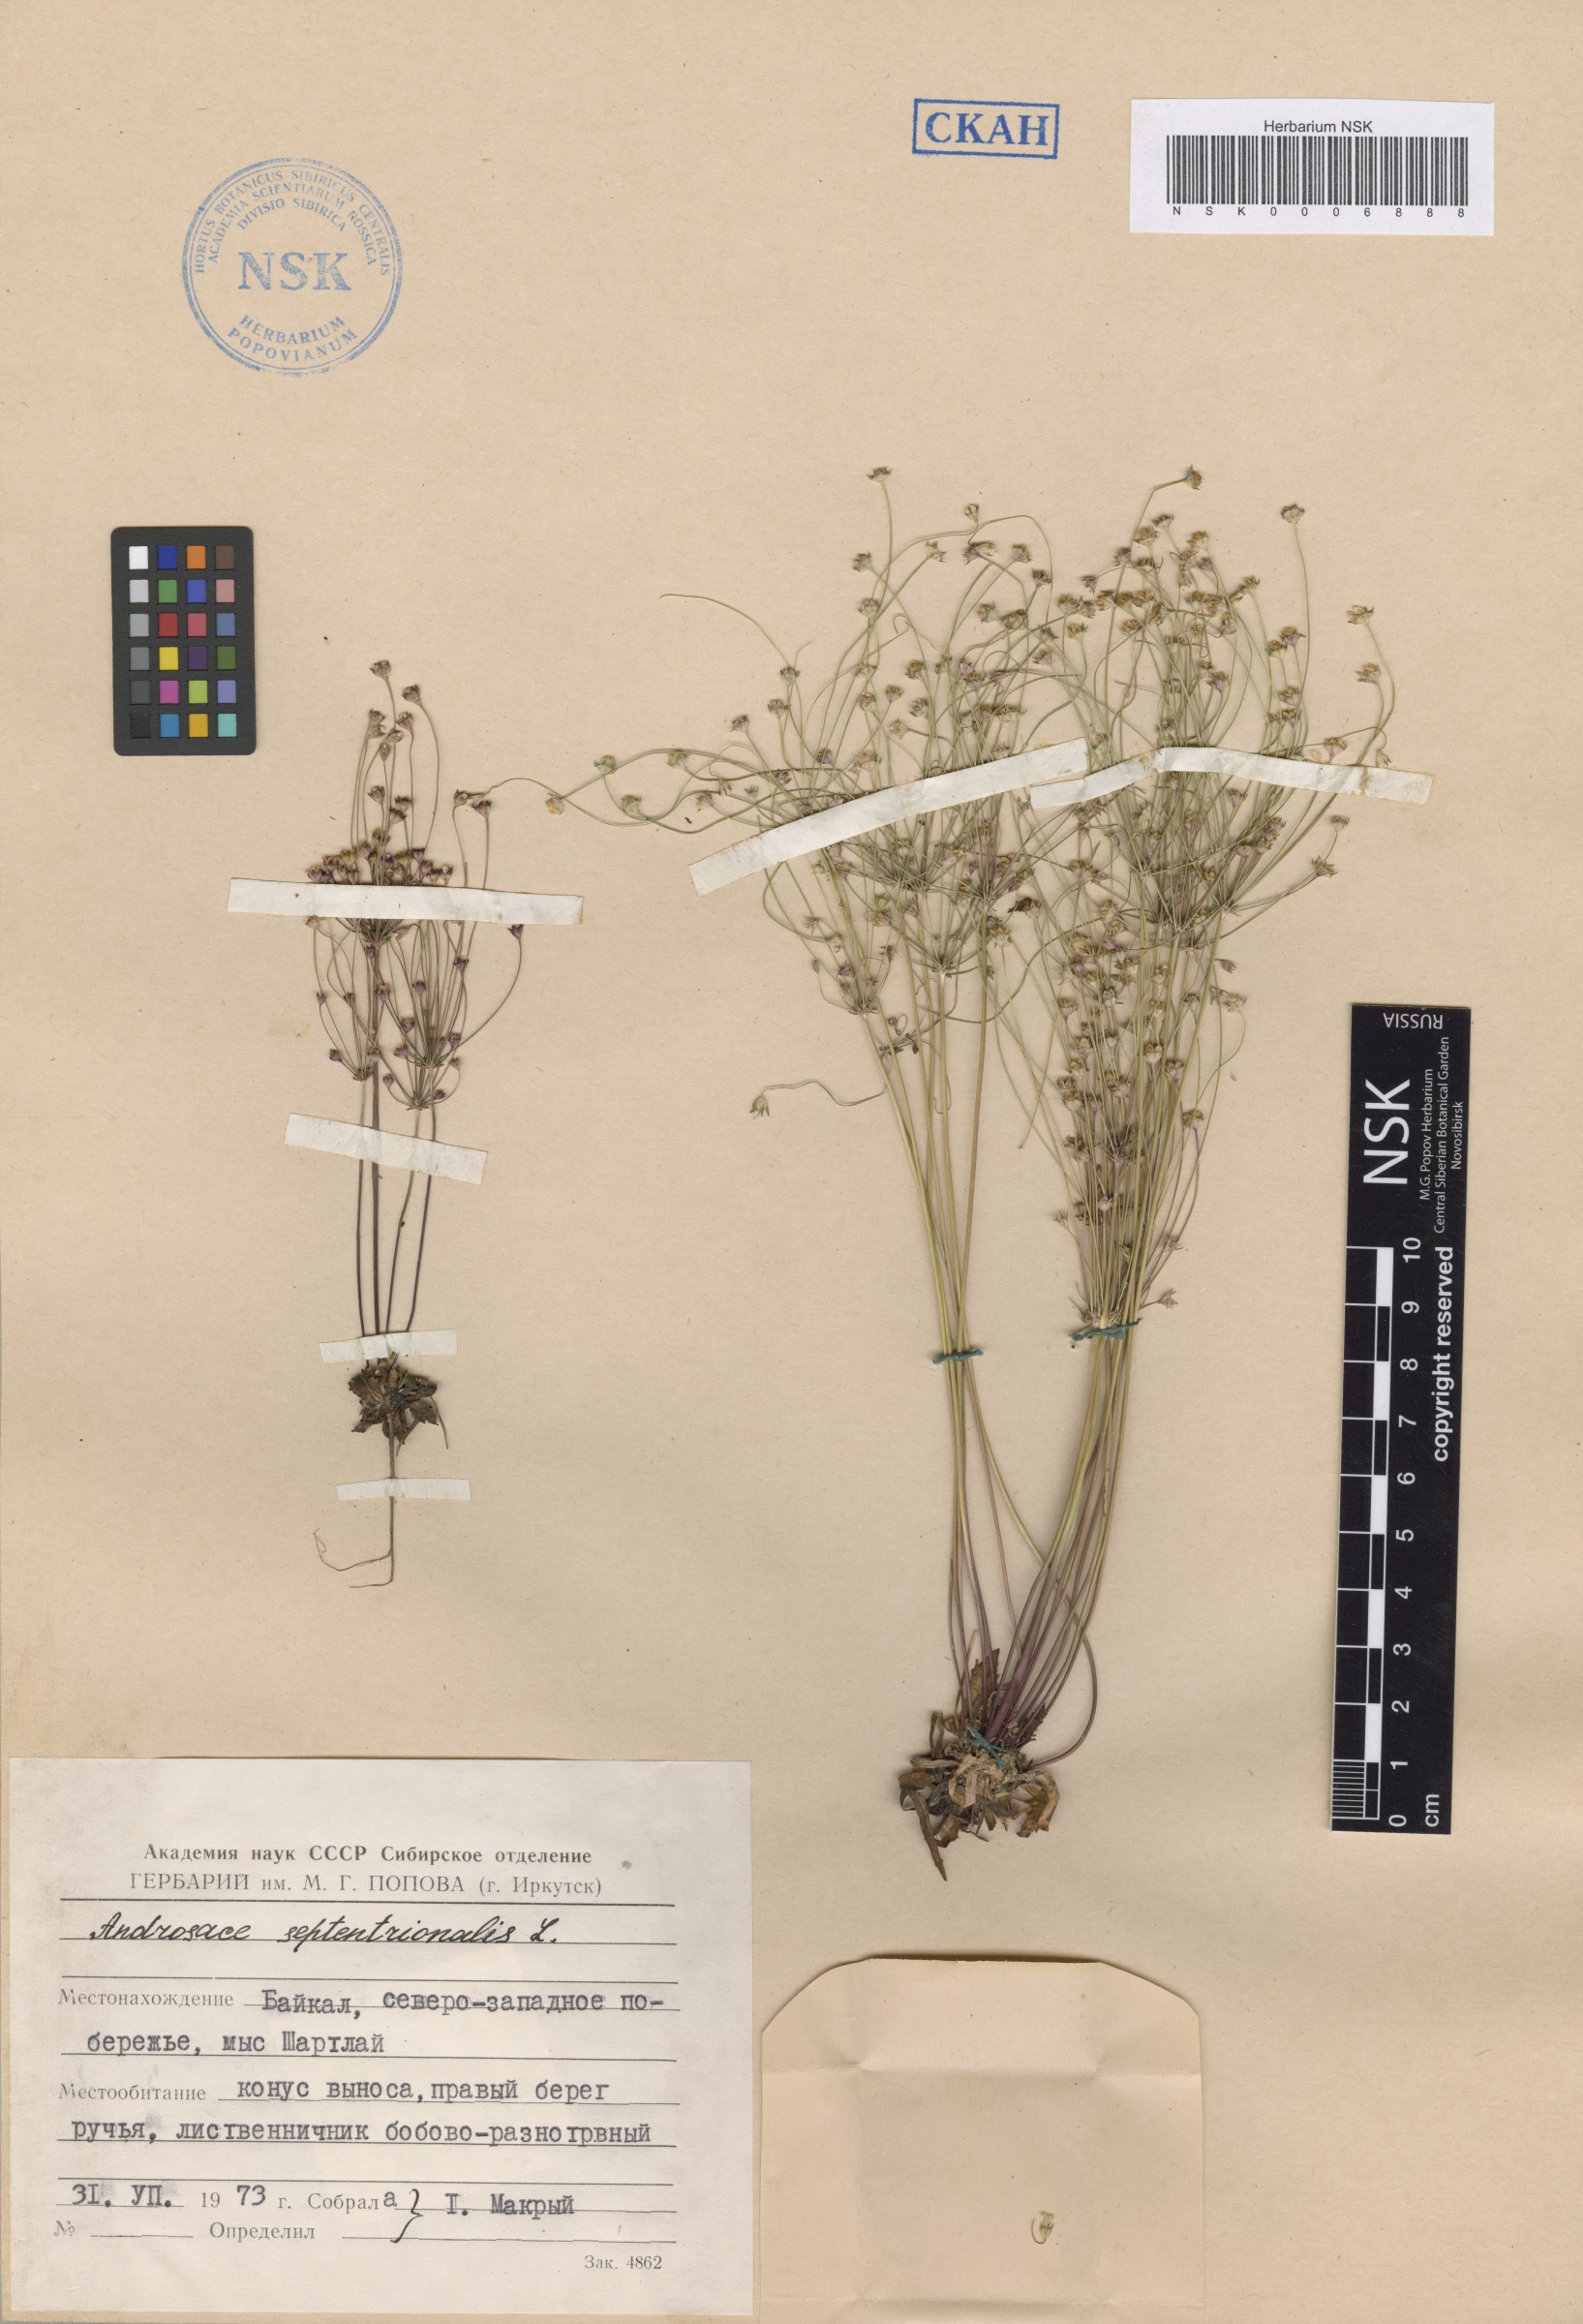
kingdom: Plantae
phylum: Tracheophyta
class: Magnoliopsida
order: Ericales
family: Primulaceae
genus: Androsace
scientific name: Androsace septentrionalis
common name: Hairy northern fairy-candelabra
